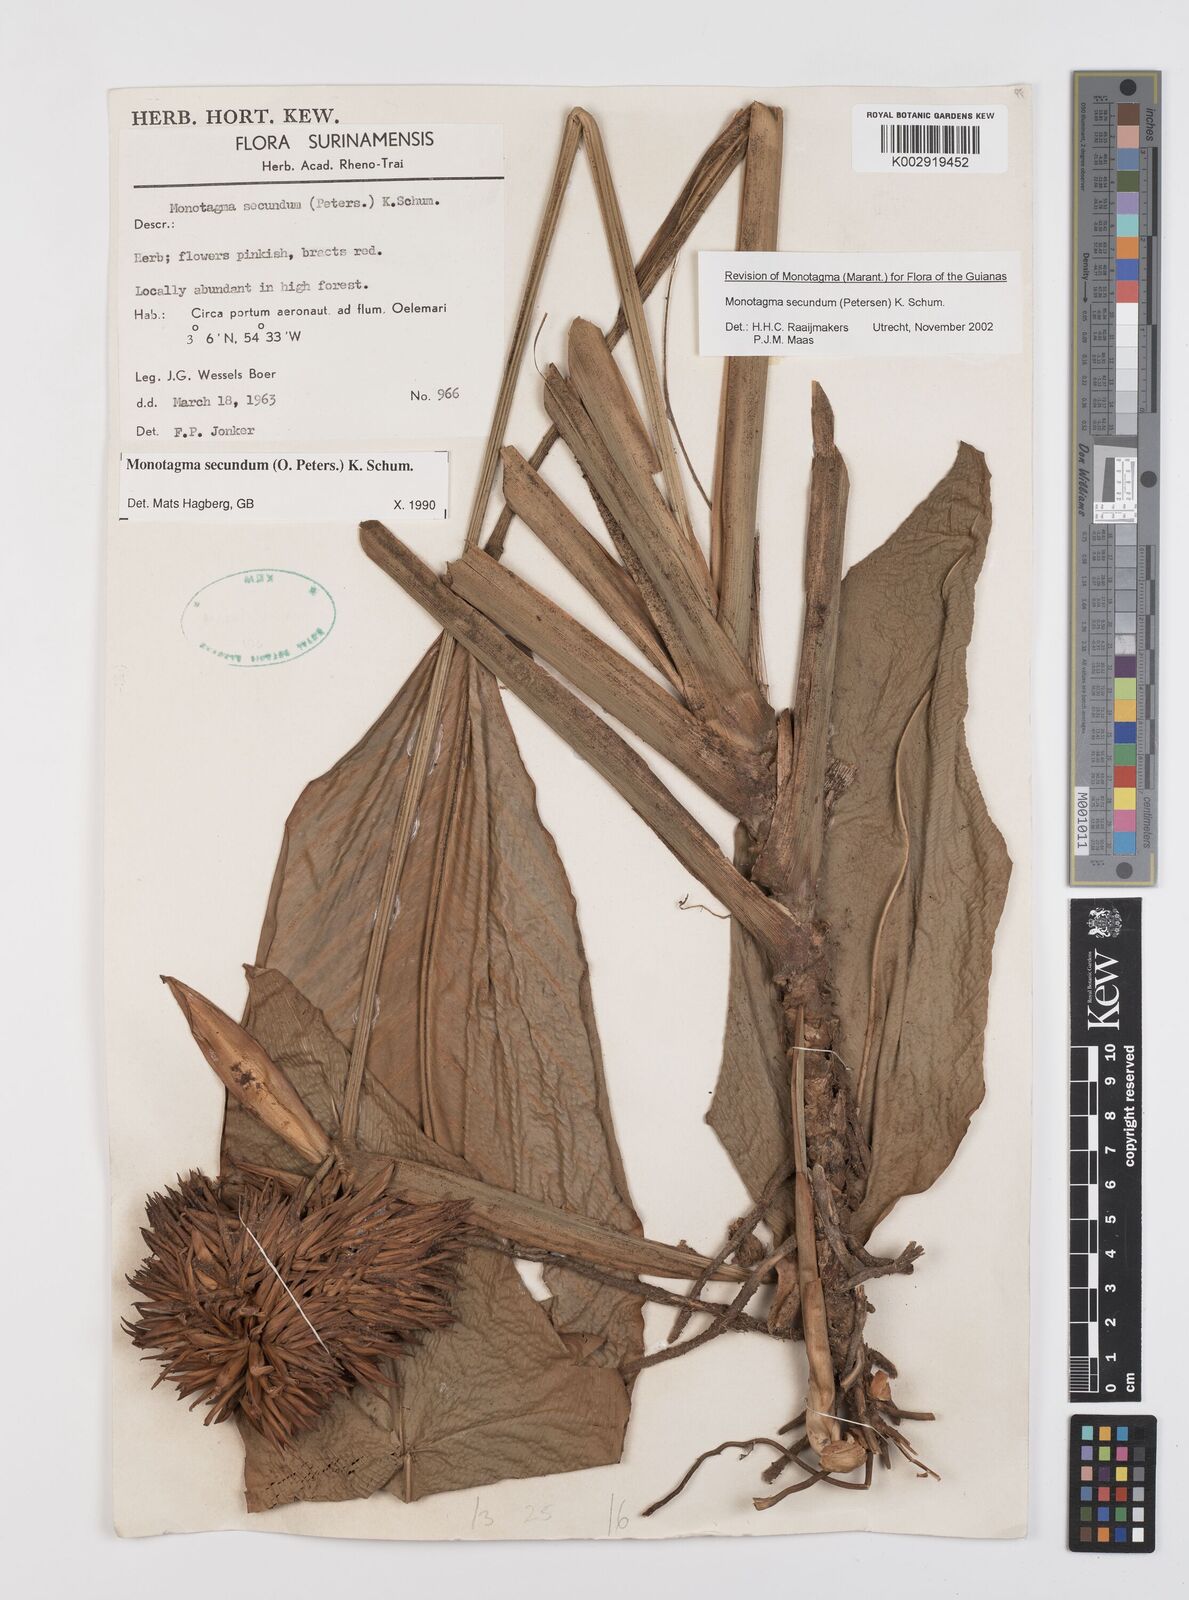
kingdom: Plantae
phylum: Tracheophyta
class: Liliopsida
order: Zingiberales
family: Marantaceae
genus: Monotagma
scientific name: Monotagma secundum
